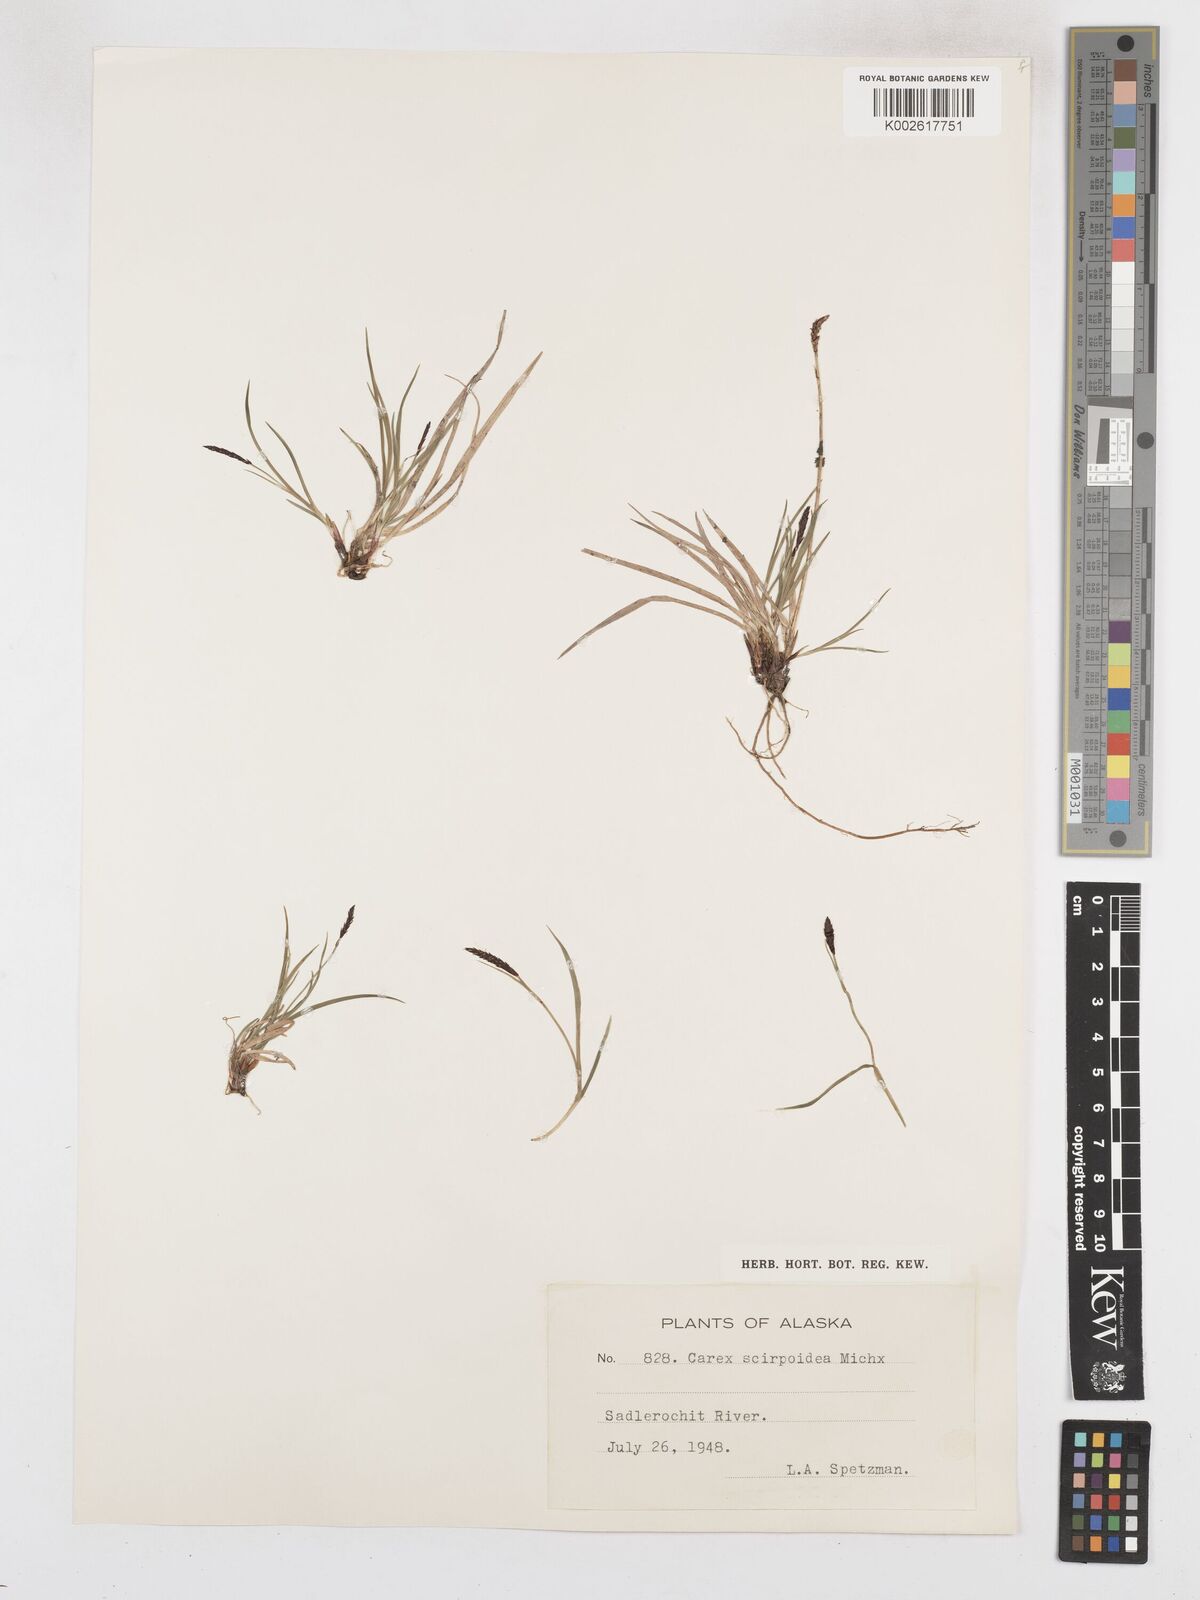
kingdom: Plantae
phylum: Tracheophyta
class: Liliopsida
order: Poales
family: Cyperaceae
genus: Carex
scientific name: Carex scirpoidea
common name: Canada single-spike sedge
